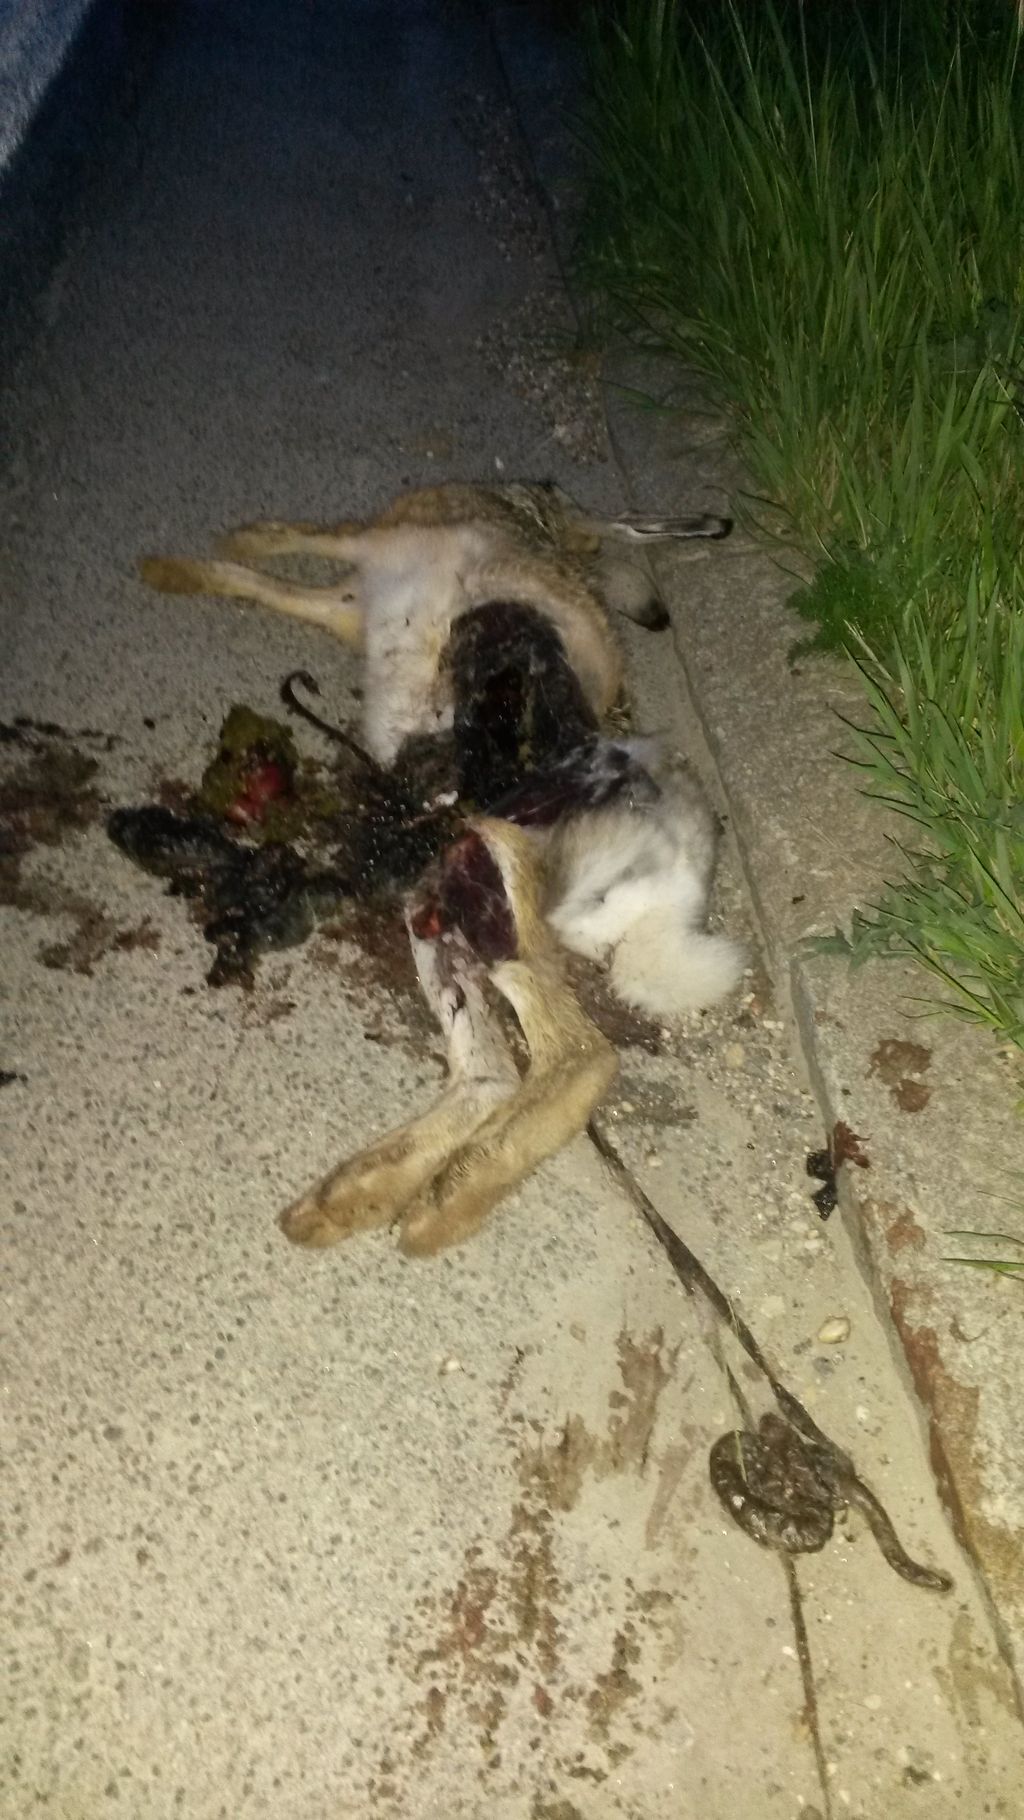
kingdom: Animalia
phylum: Chordata
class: Mammalia
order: Lagomorpha
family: Leporidae
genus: Lepus
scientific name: Lepus europaeus
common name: European hare
